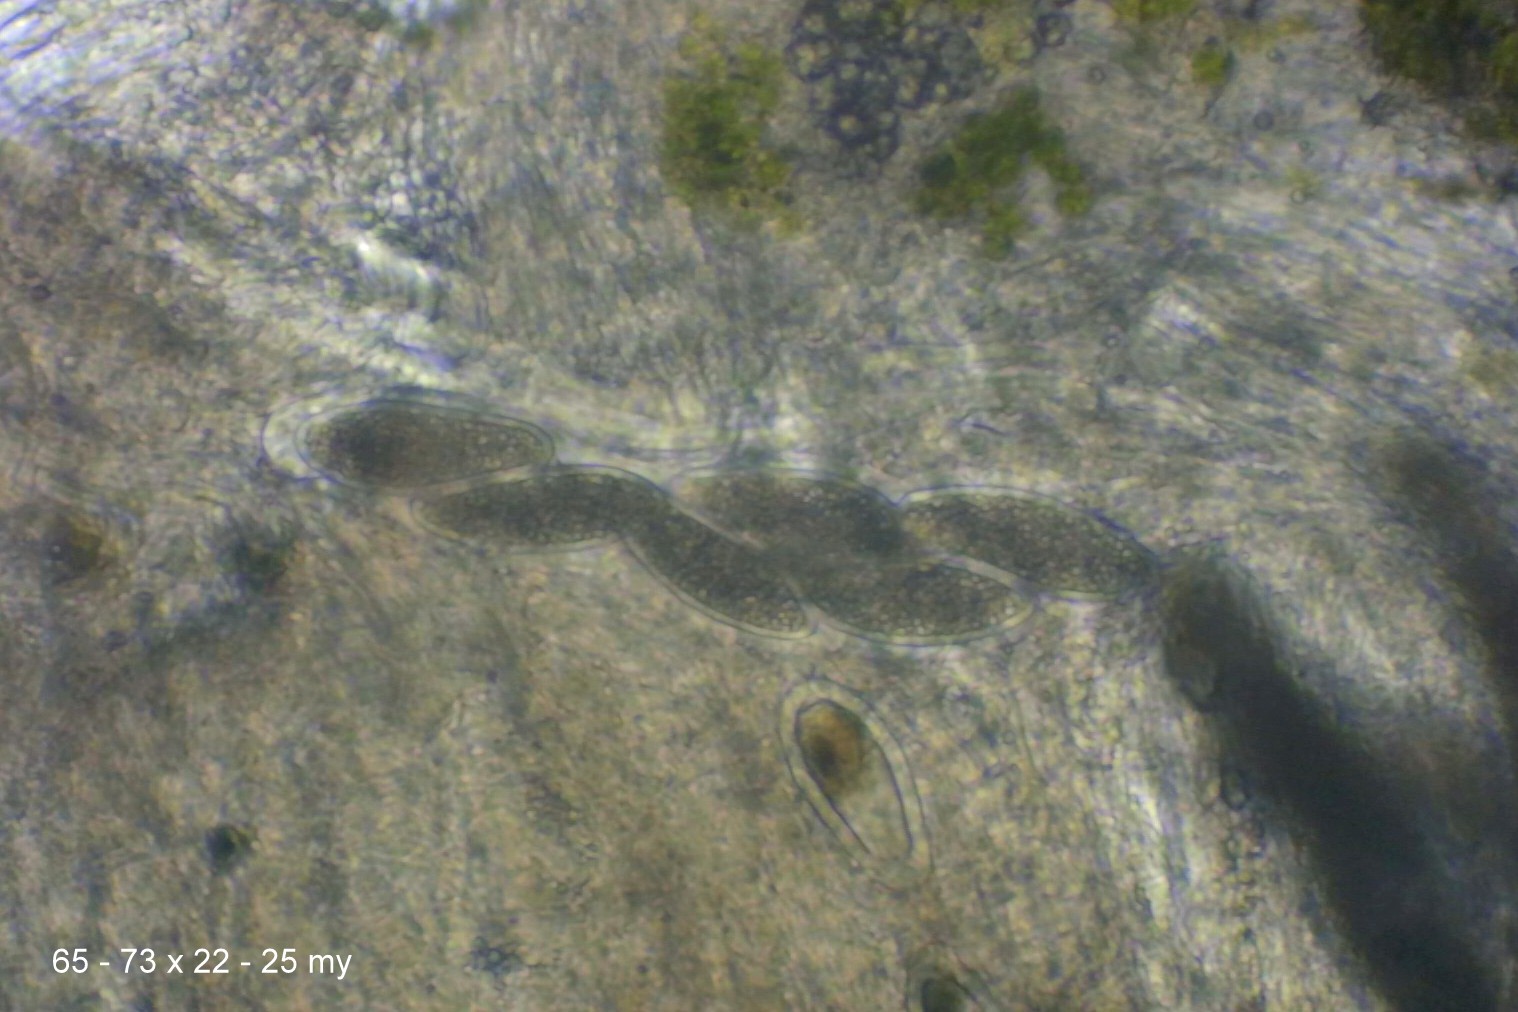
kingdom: Fungi
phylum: Ascomycota
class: Lecanoromycetes
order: Pertusariales
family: Pertusariaceae
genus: Pertusaria
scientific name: Pertusaria hymenea
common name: åben prikvortelav
